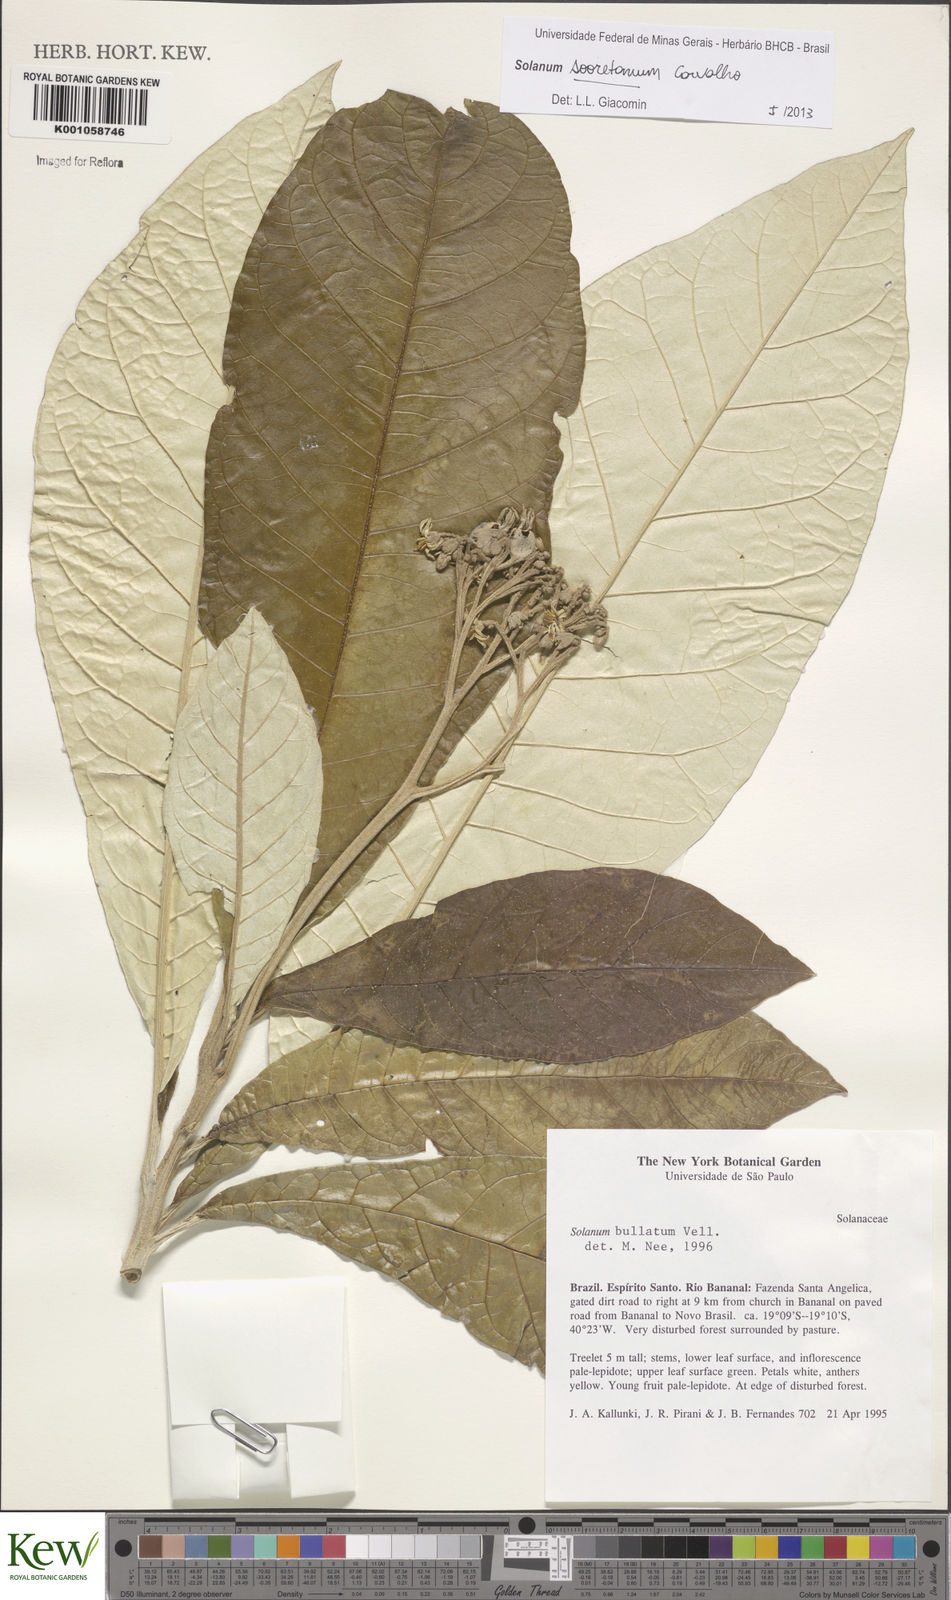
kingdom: Plantae
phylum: Tracheophyta
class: Magnoliopsida
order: Solanales
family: Solanaceae
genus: Solanum
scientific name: Solanum sooretamum
